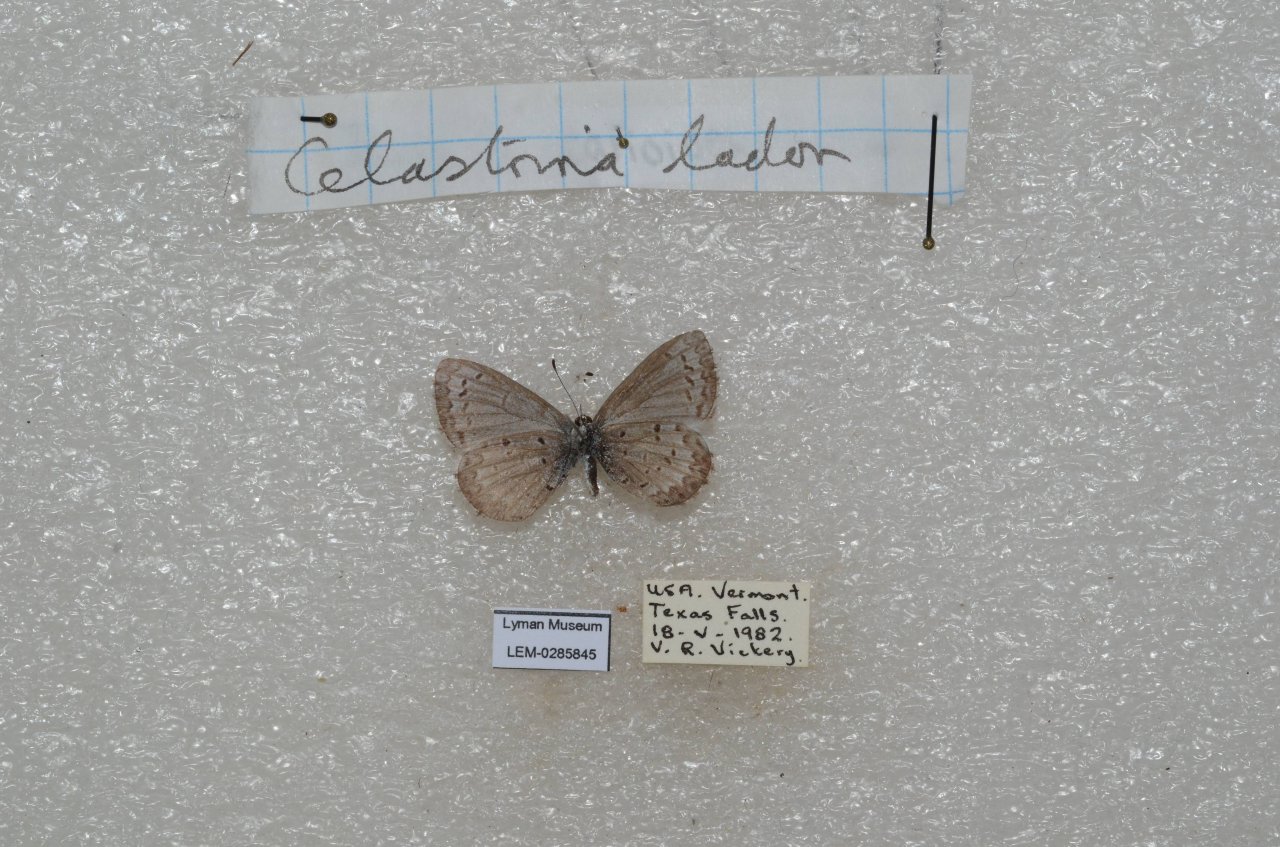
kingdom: Animalia
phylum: Arthropoda
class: Insecta
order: Lepidoptera
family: Lycaenidae
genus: Celastrina
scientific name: Celastrina
